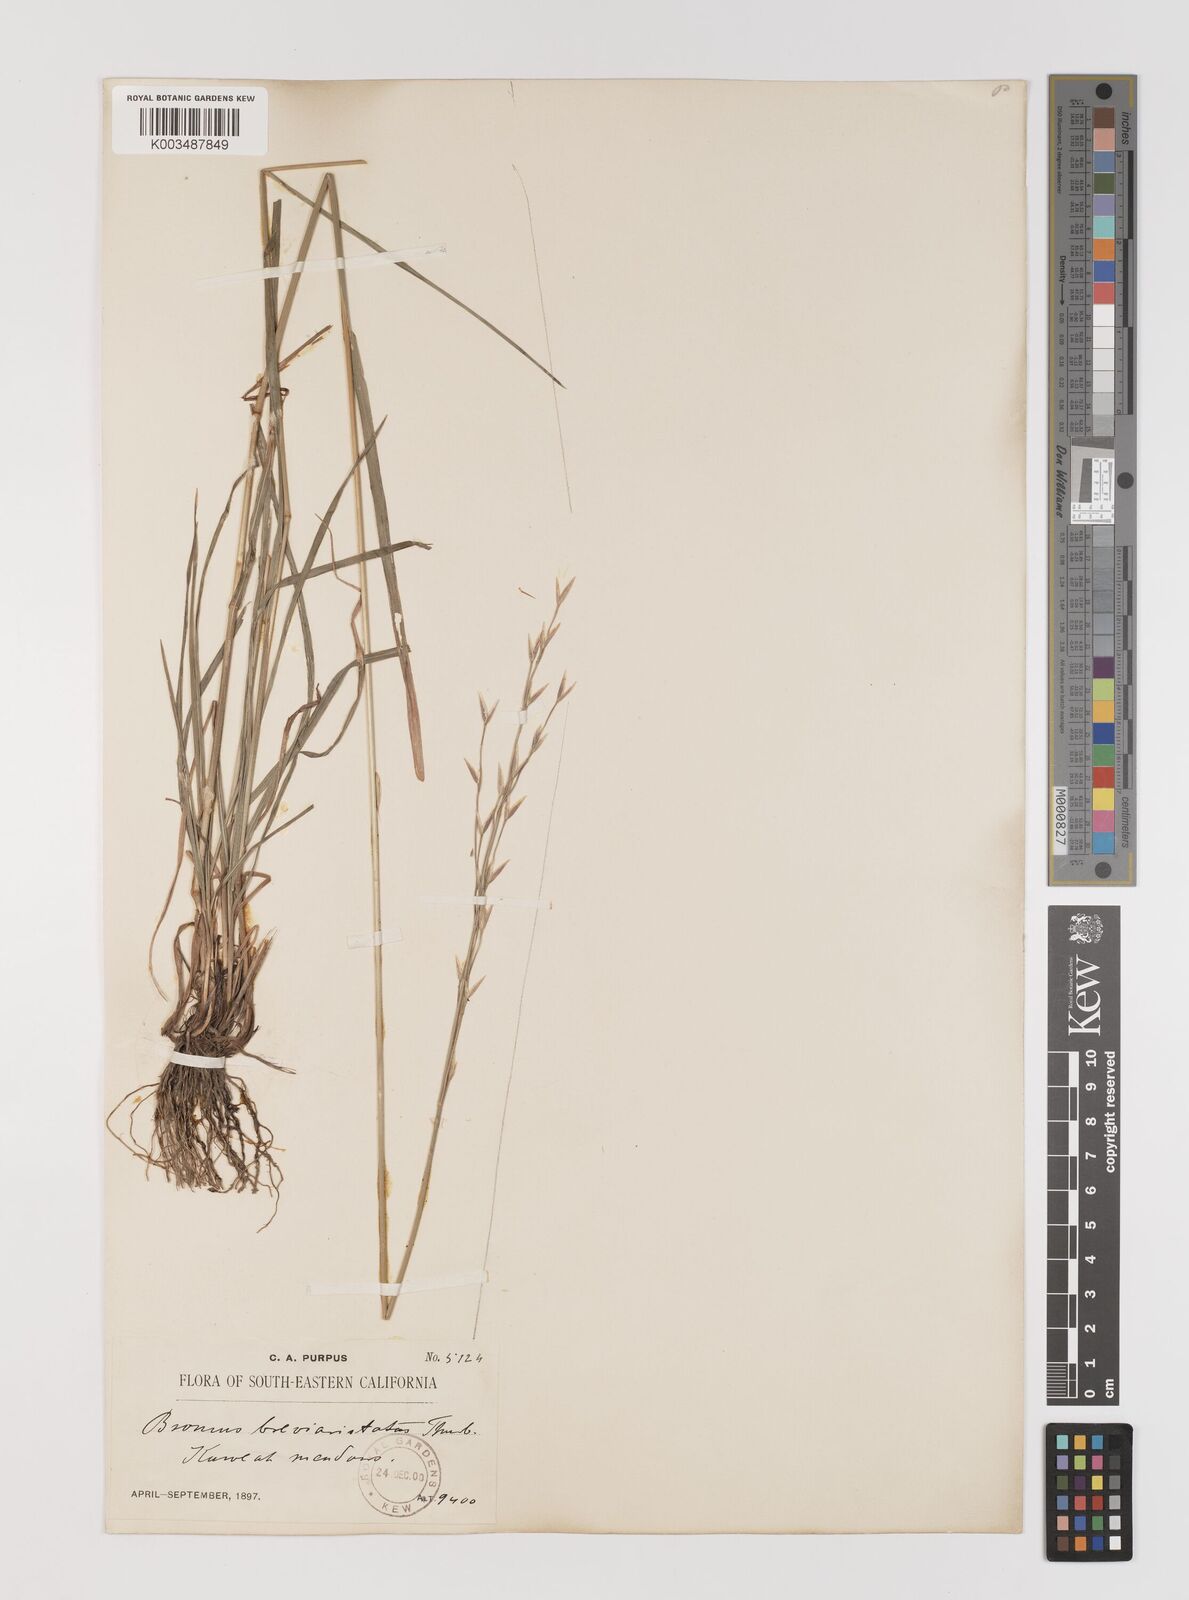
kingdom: Plantae
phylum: Tracheophyta
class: Liliopsida
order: Poales
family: Poaceae
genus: Bromus
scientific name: Bromus catharticus
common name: Rescuegrass
